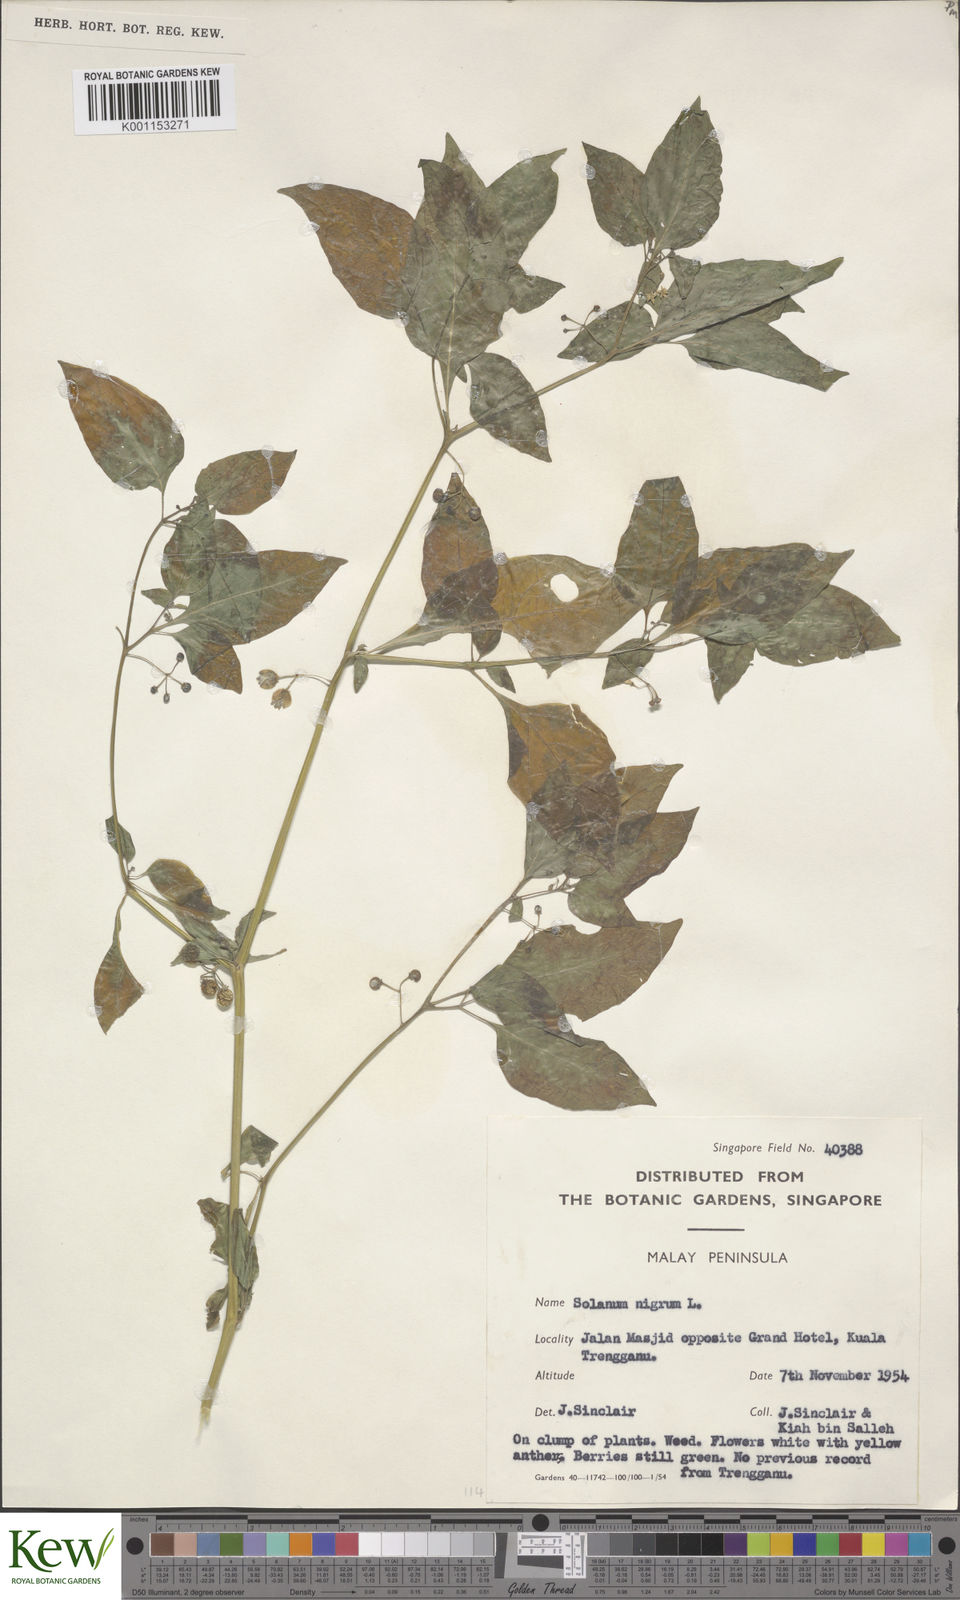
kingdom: Plantae
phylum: Tracheophyta
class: Magnoliopsida
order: Solanales
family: Solanaceae
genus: Solanum
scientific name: Solanum americanum
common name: American black nightshade
